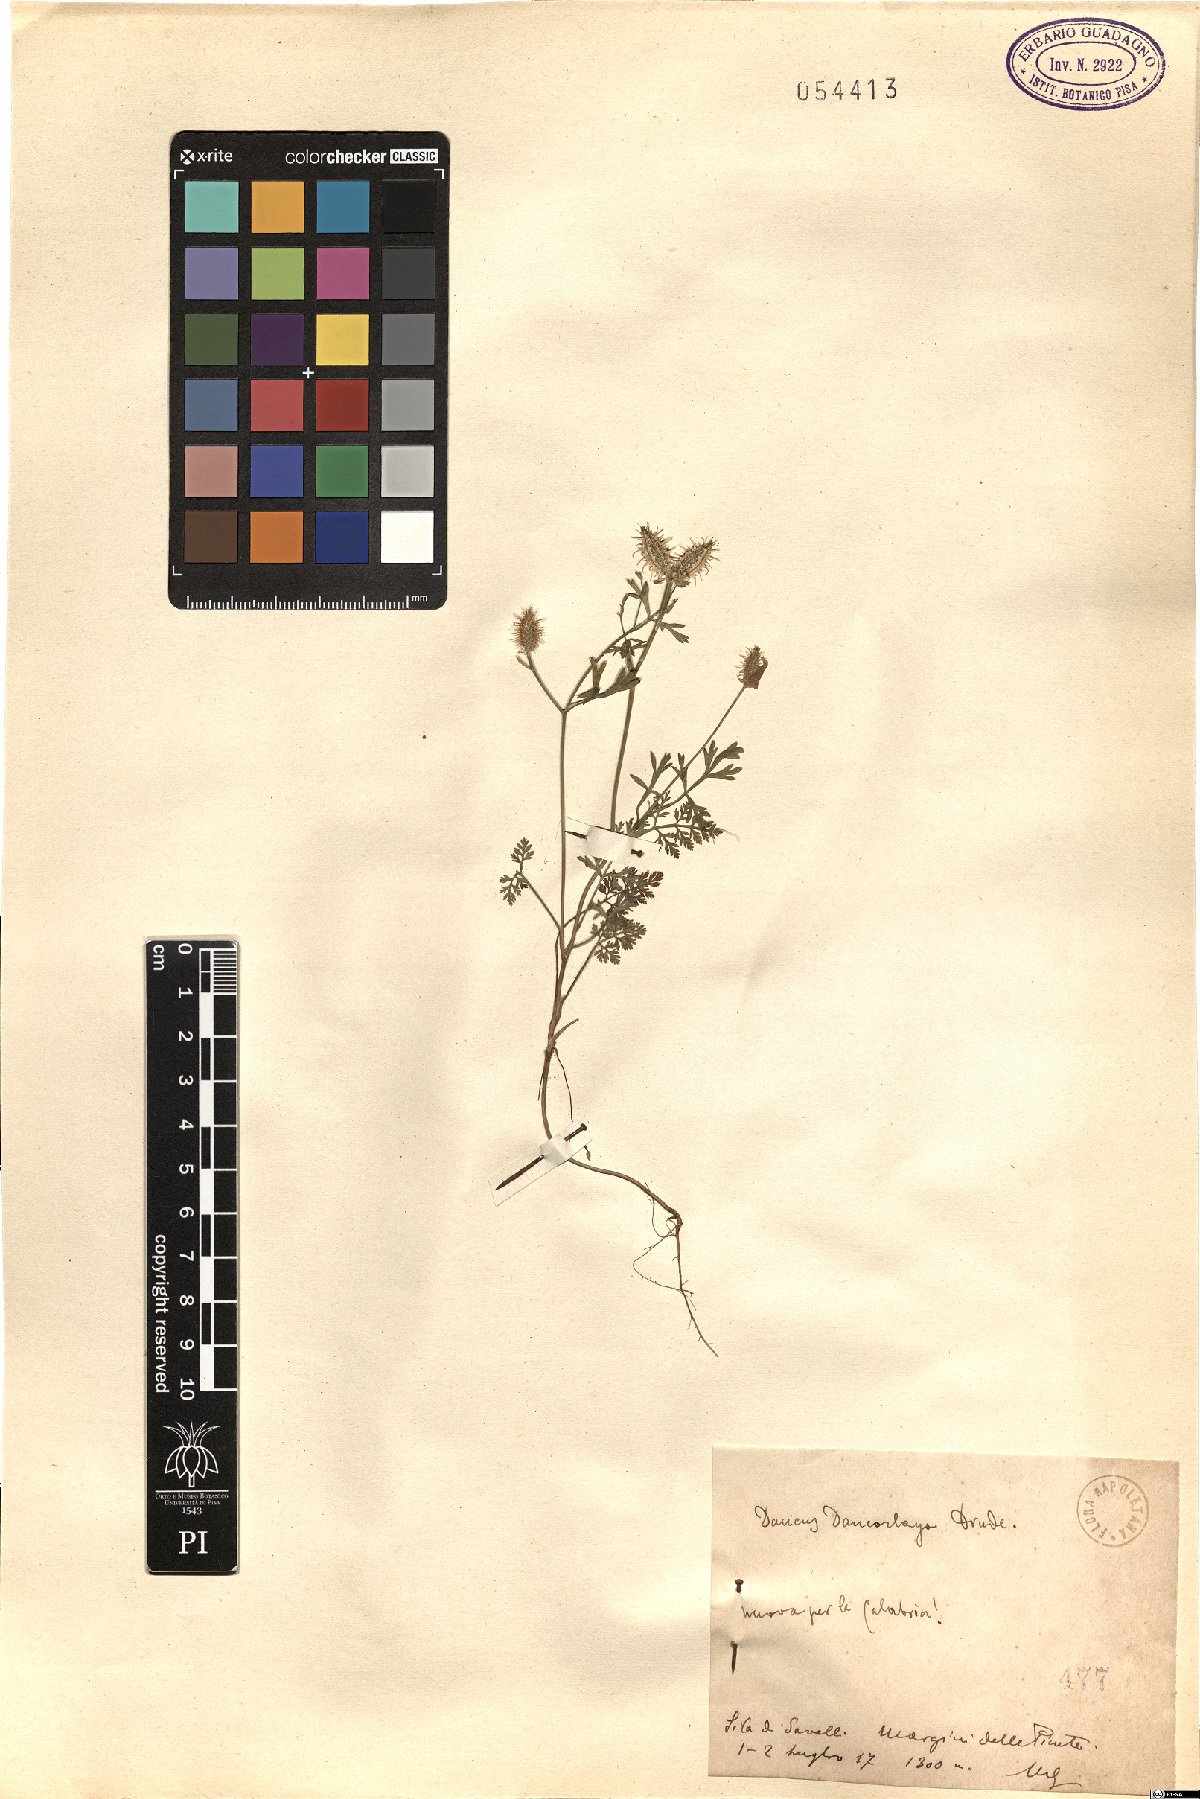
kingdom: Plantae
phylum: Tracheophyta
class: Magnoliopsida
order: Apiales
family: Apiaceae
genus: Orlaya
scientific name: Orlaya daucorlaya
